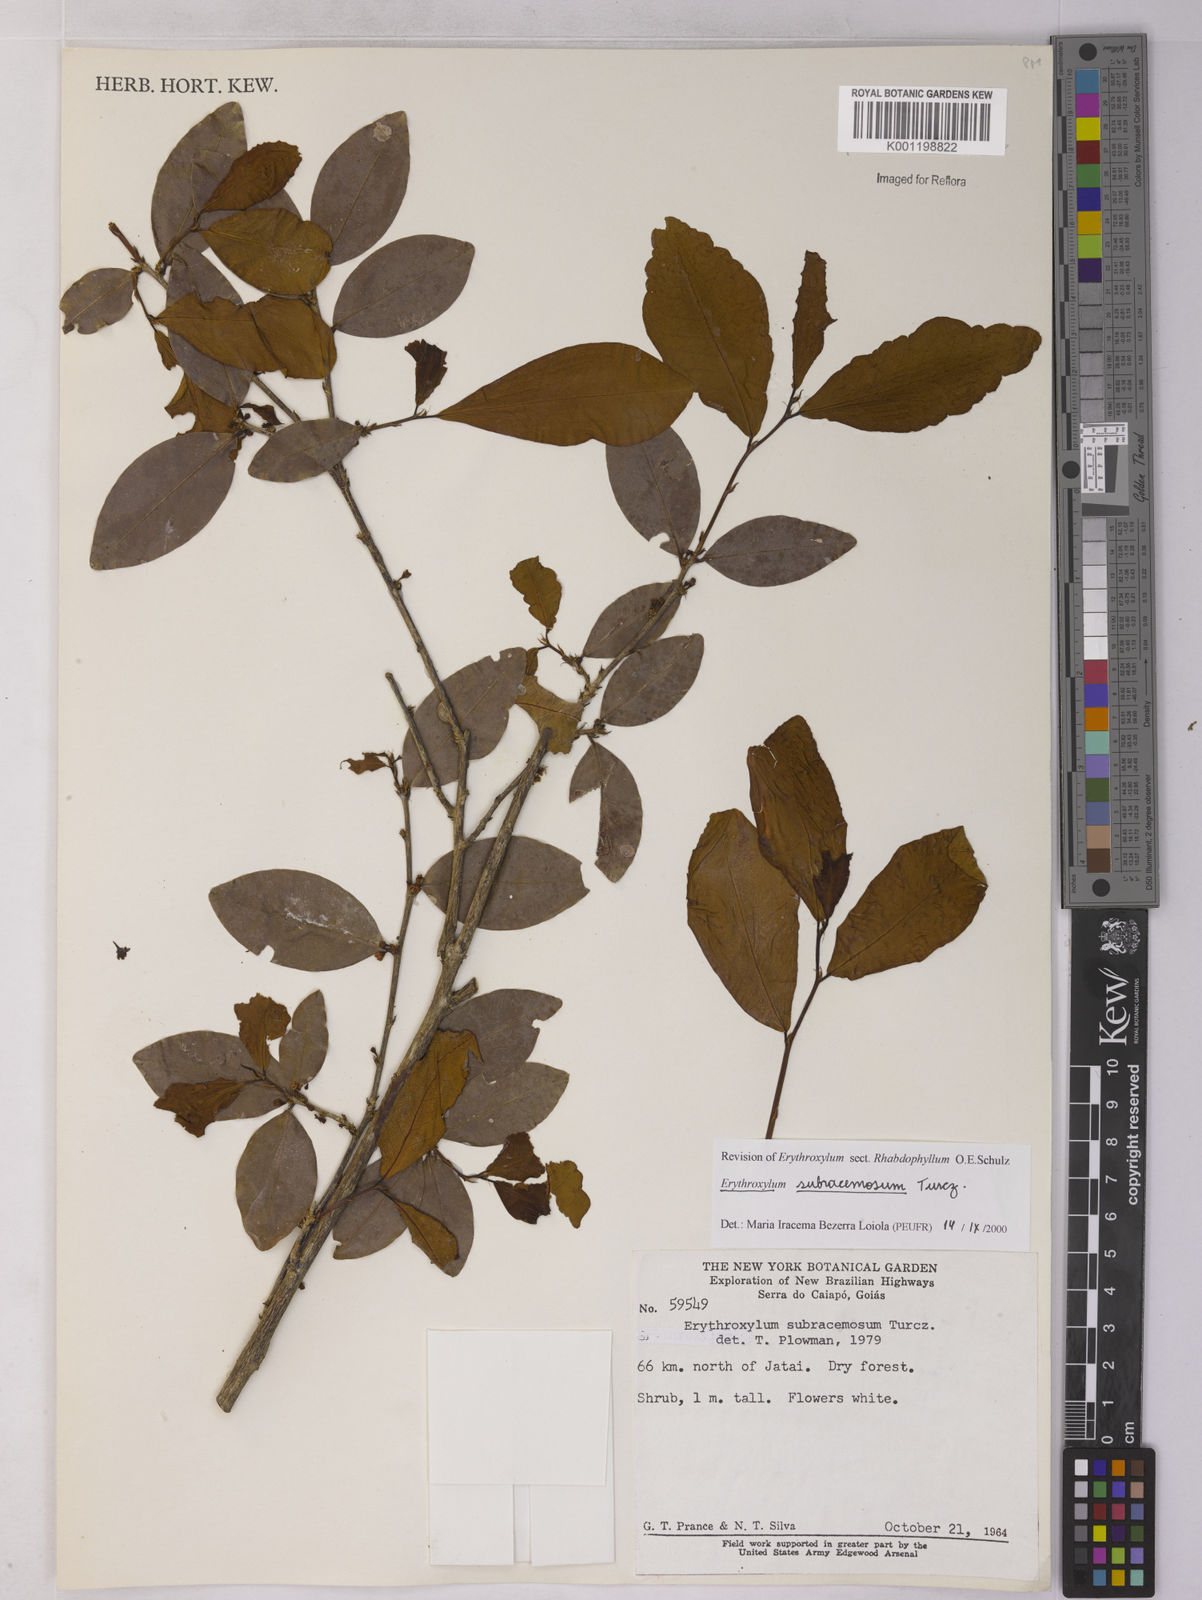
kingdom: Plantae
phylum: Tracheophyta
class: Magnoliopsida
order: Malpighiales
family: Erythroxylaceae
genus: Erythroxylum
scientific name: Erythroxylum subracemosum
